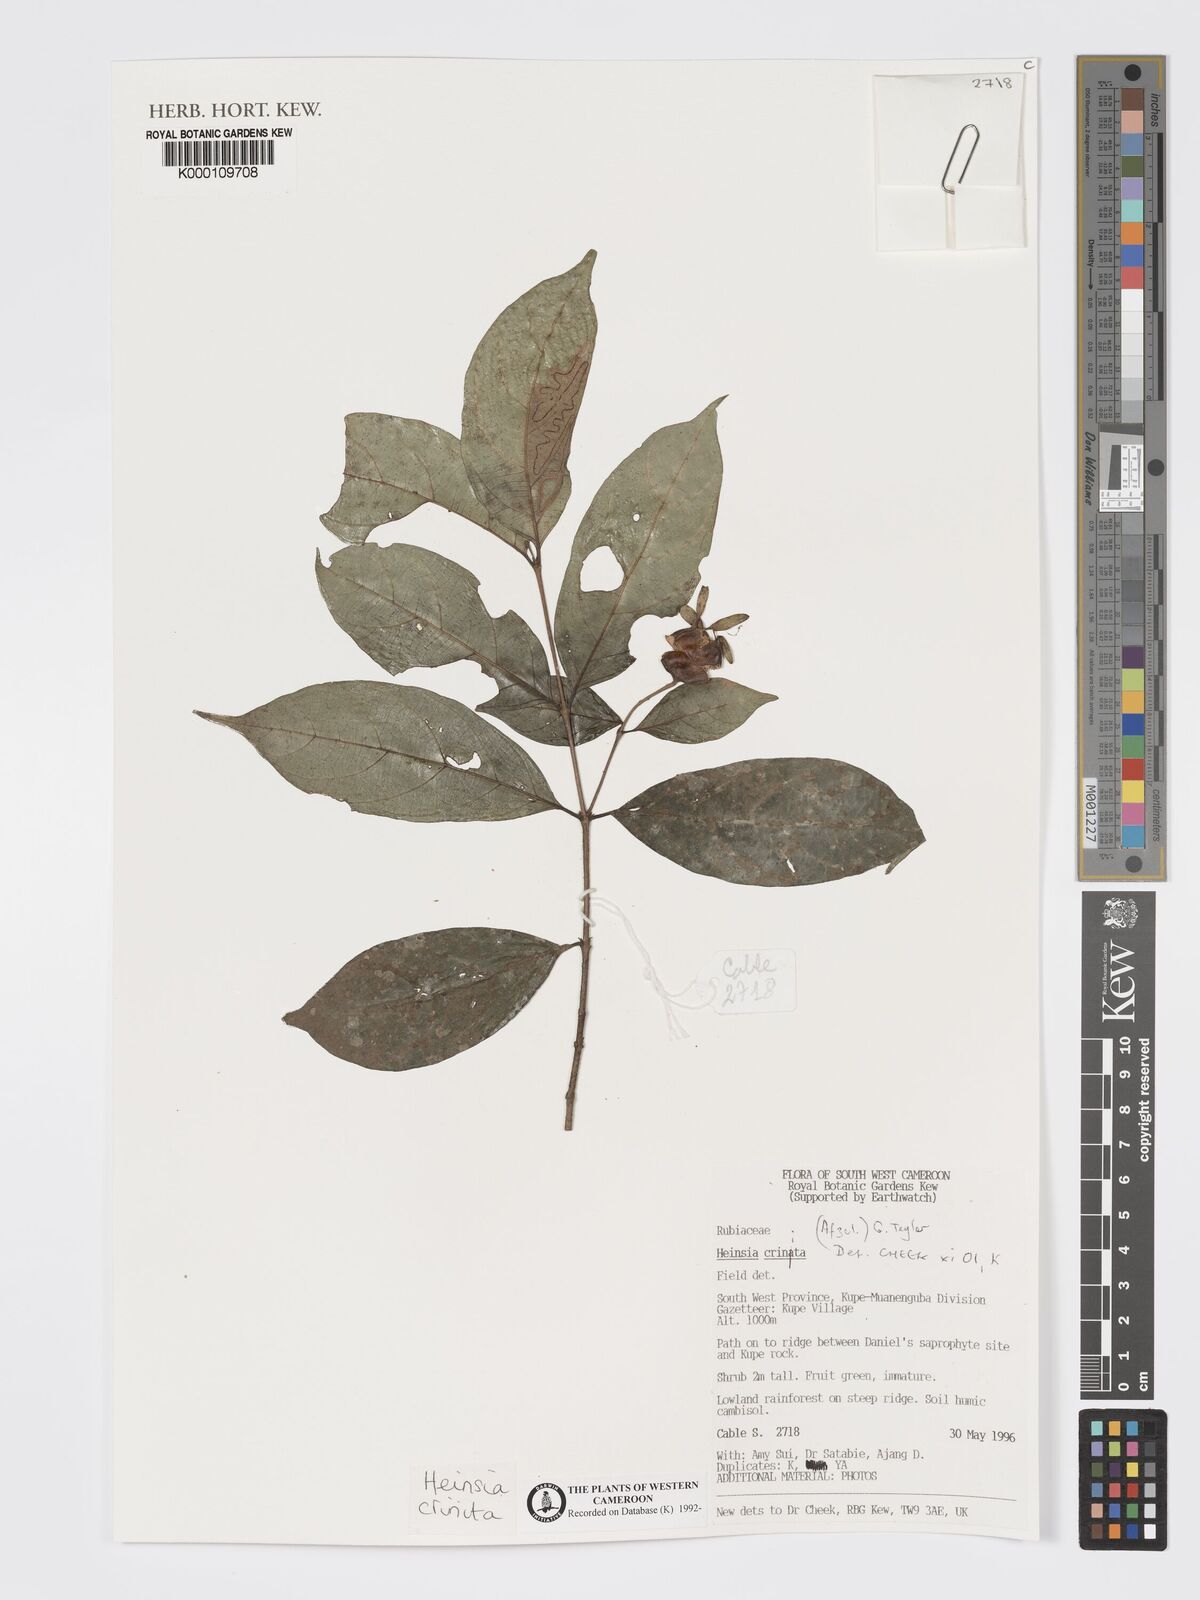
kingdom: Plantae
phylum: Tracheophyta
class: Magnoliopsida
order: Gentianales
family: Rubiaceae
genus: Heinsia
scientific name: Heinsia crinita
